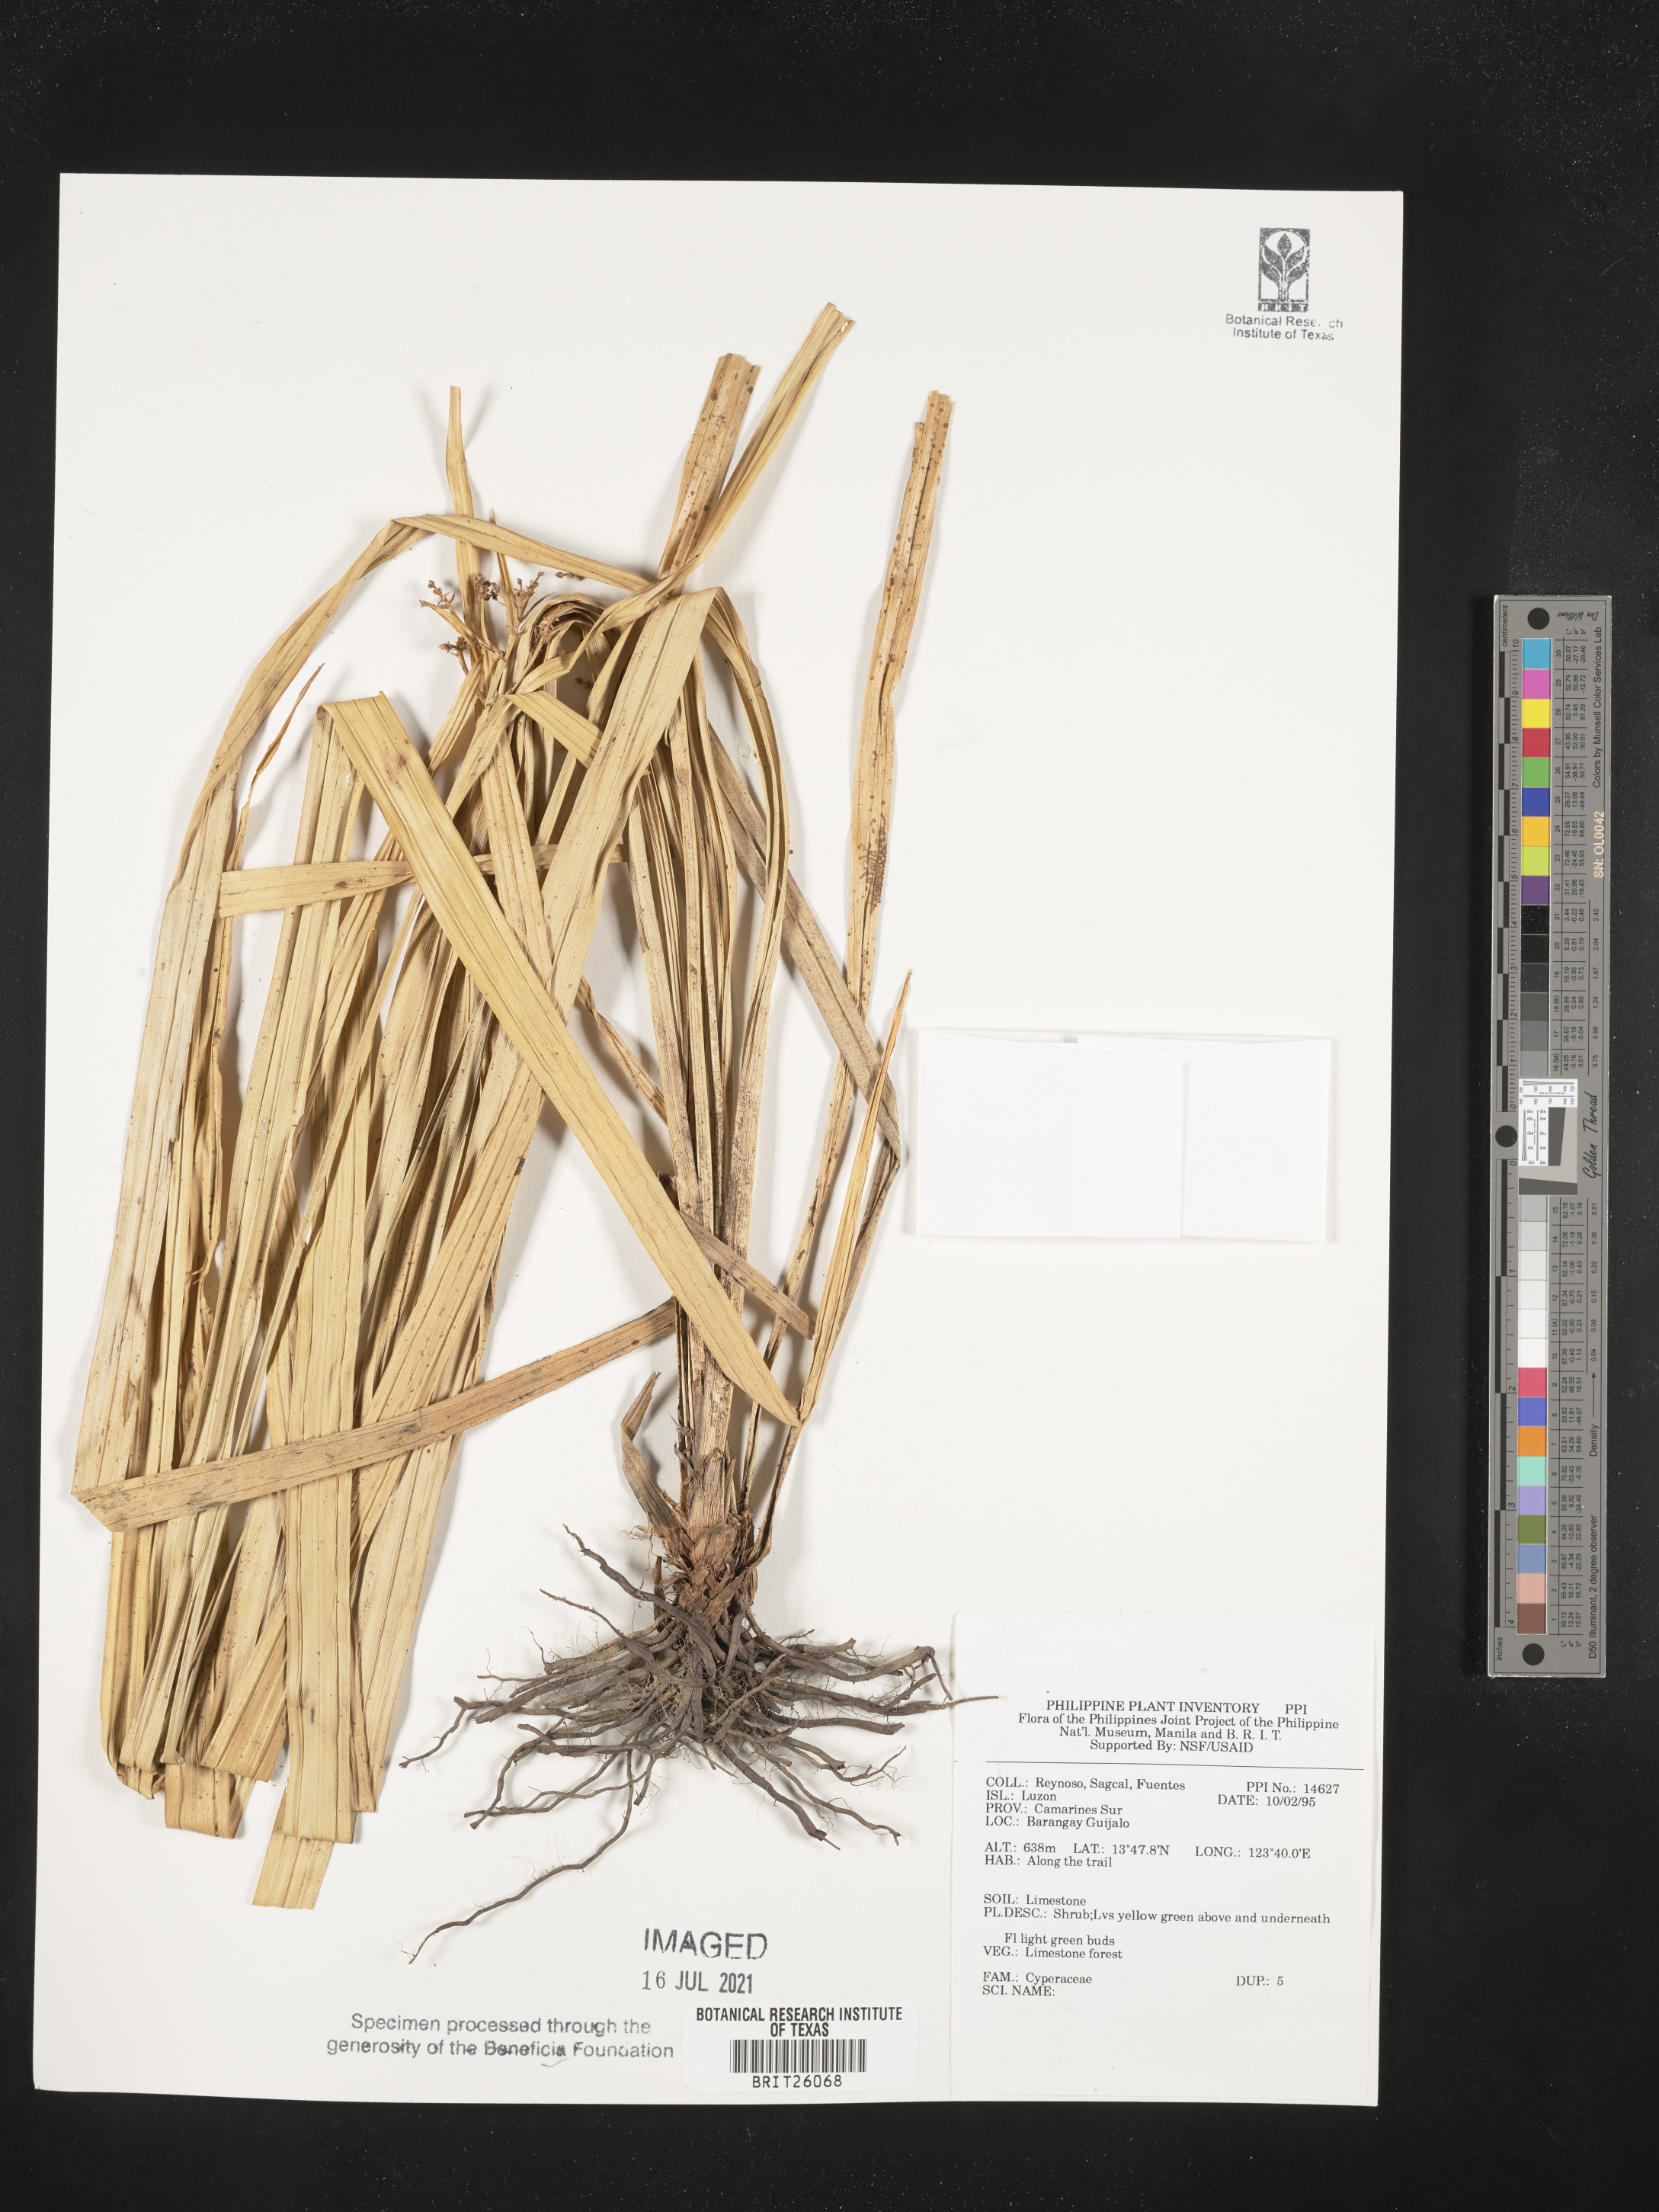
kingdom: Plantae
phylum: Tracheophyta
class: Liliopsida
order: Poales
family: Cyperaceae
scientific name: Cyperaceae
